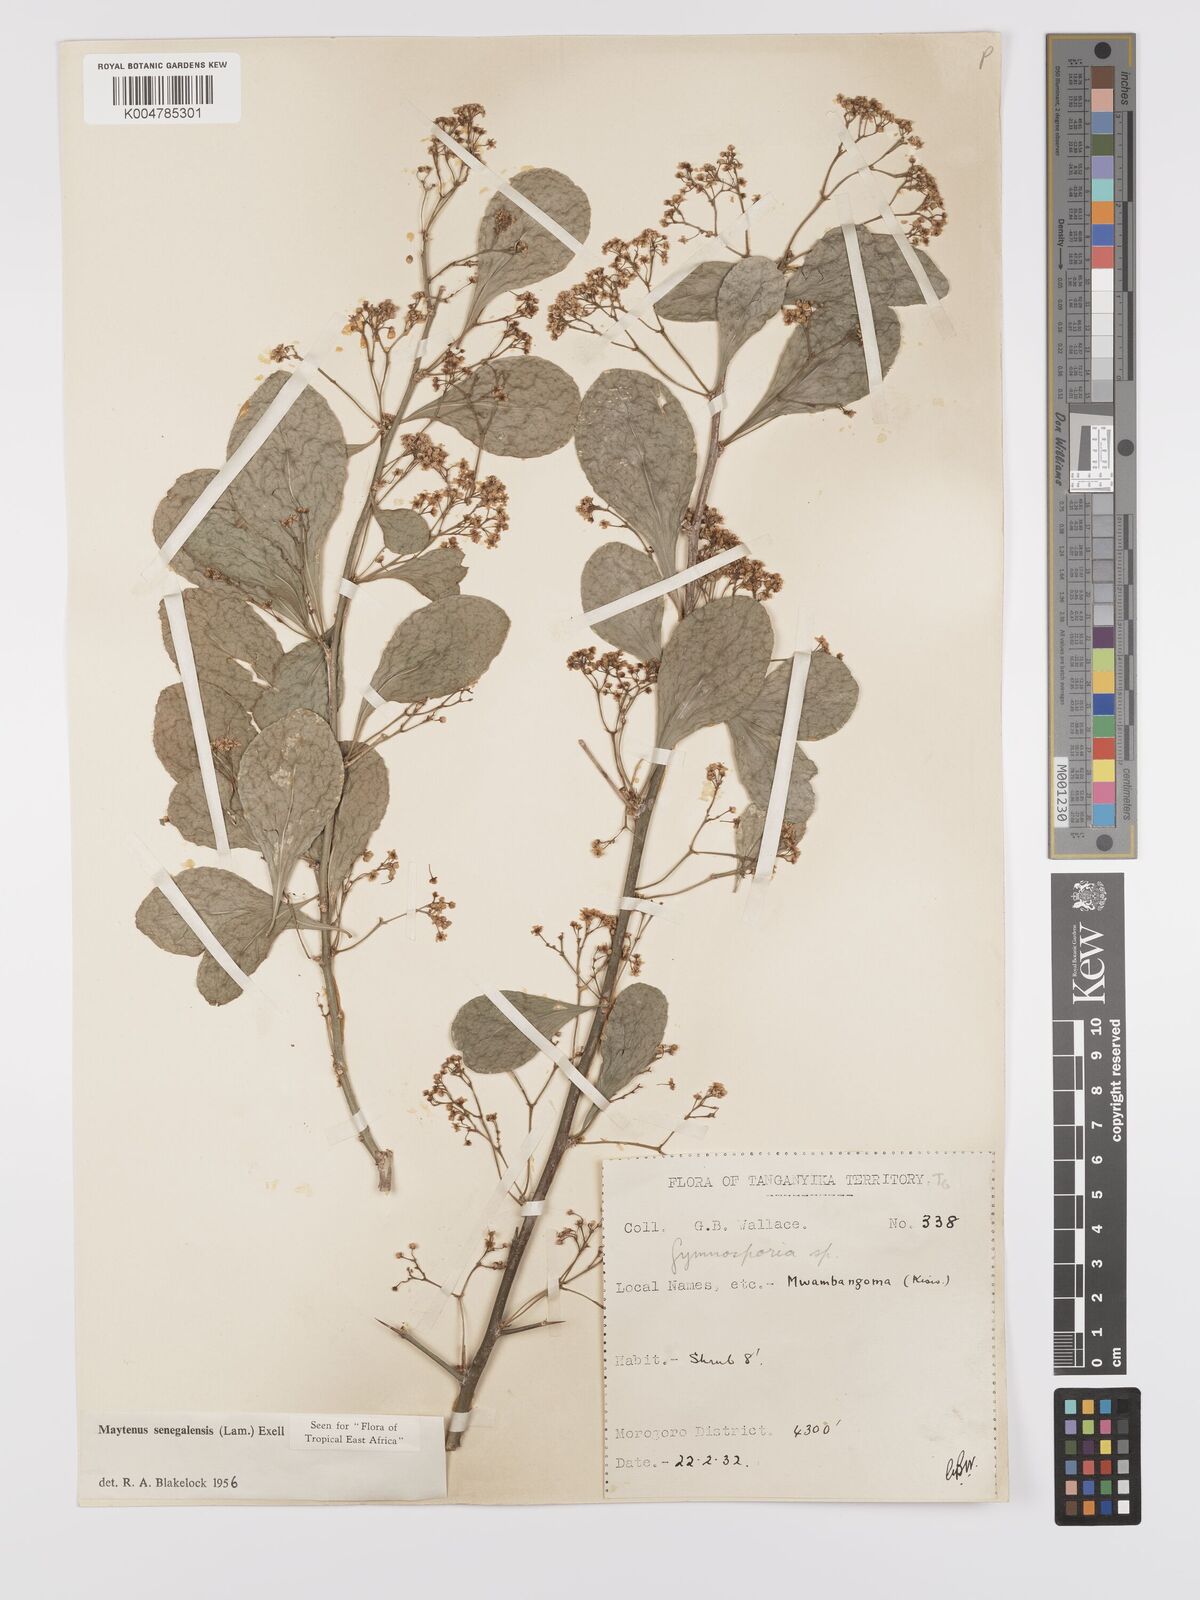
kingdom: Plantae
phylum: Tracheophyta
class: Magnoliopsida
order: Celastrales
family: Celastraceae
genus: Gymnosporia
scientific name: Gymnosporia nguruensis
